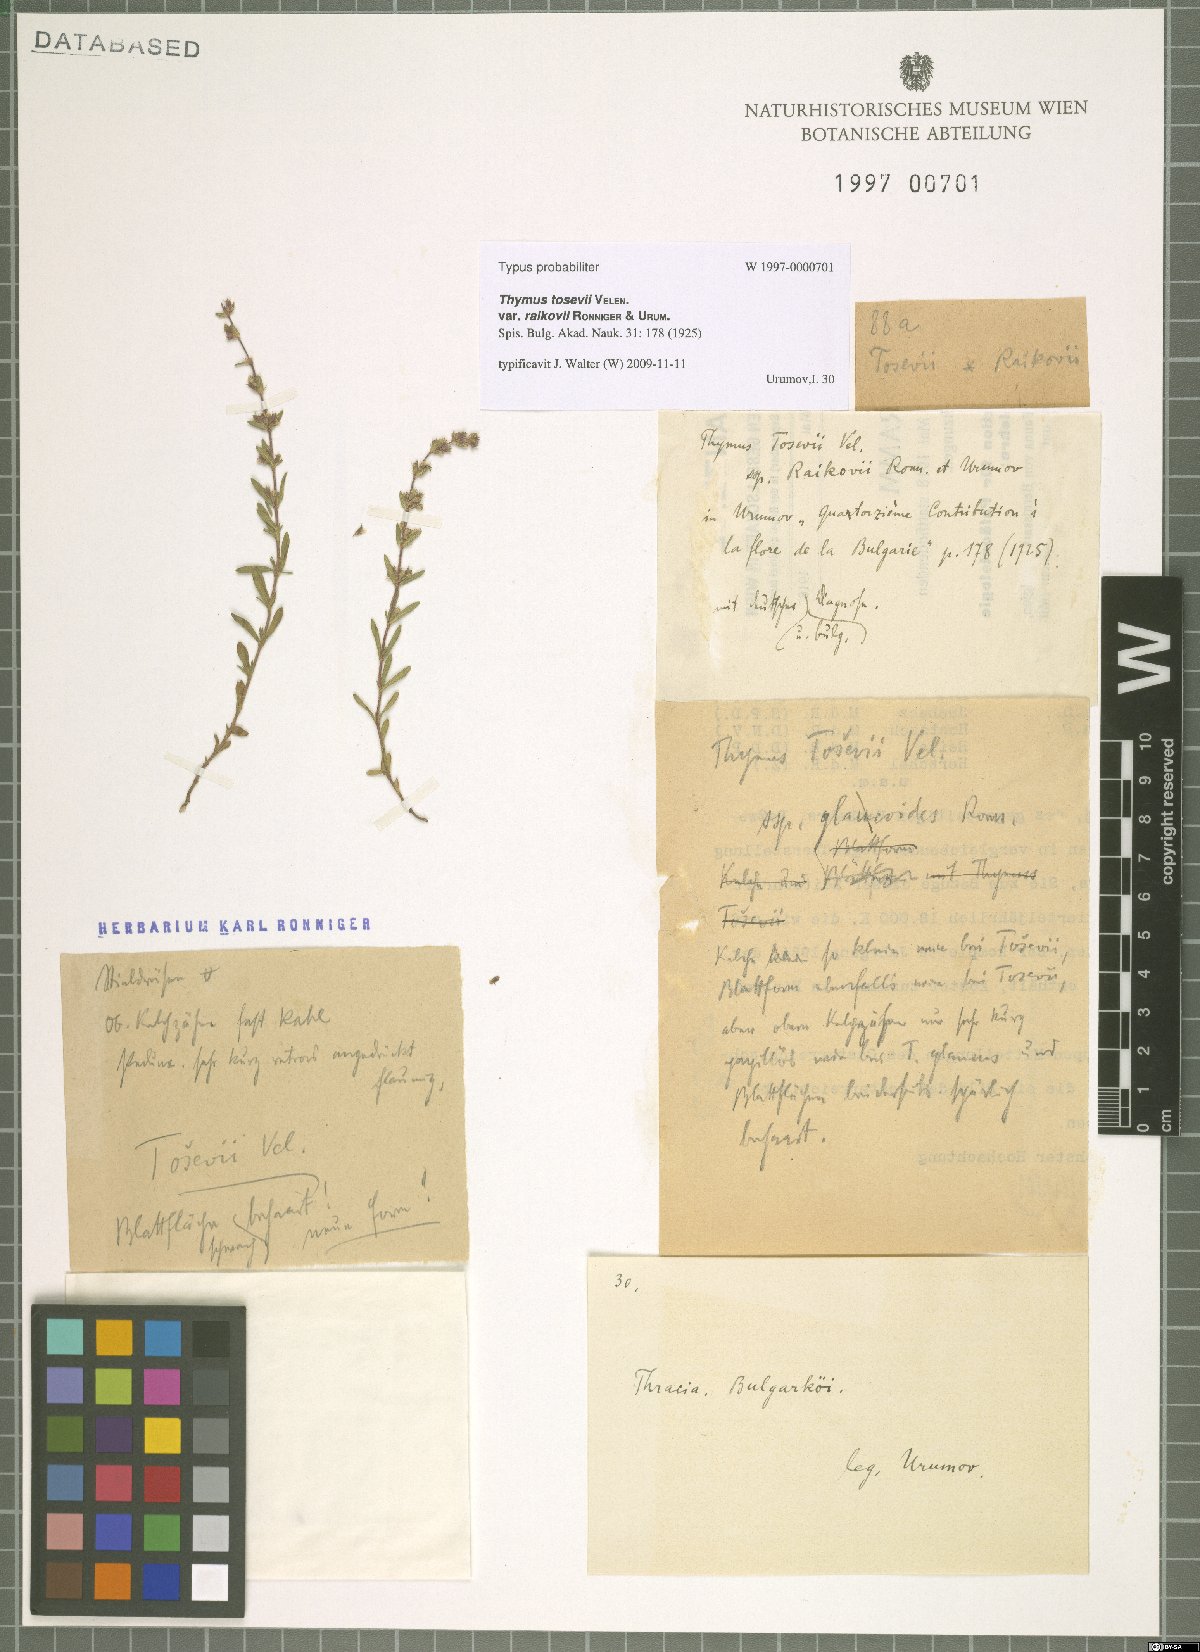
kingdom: Plantae
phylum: Tracheophyta
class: Magnoliopsida
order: Lamiales
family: Lamiaceae
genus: Thymus
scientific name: Thymus sibthorpii
